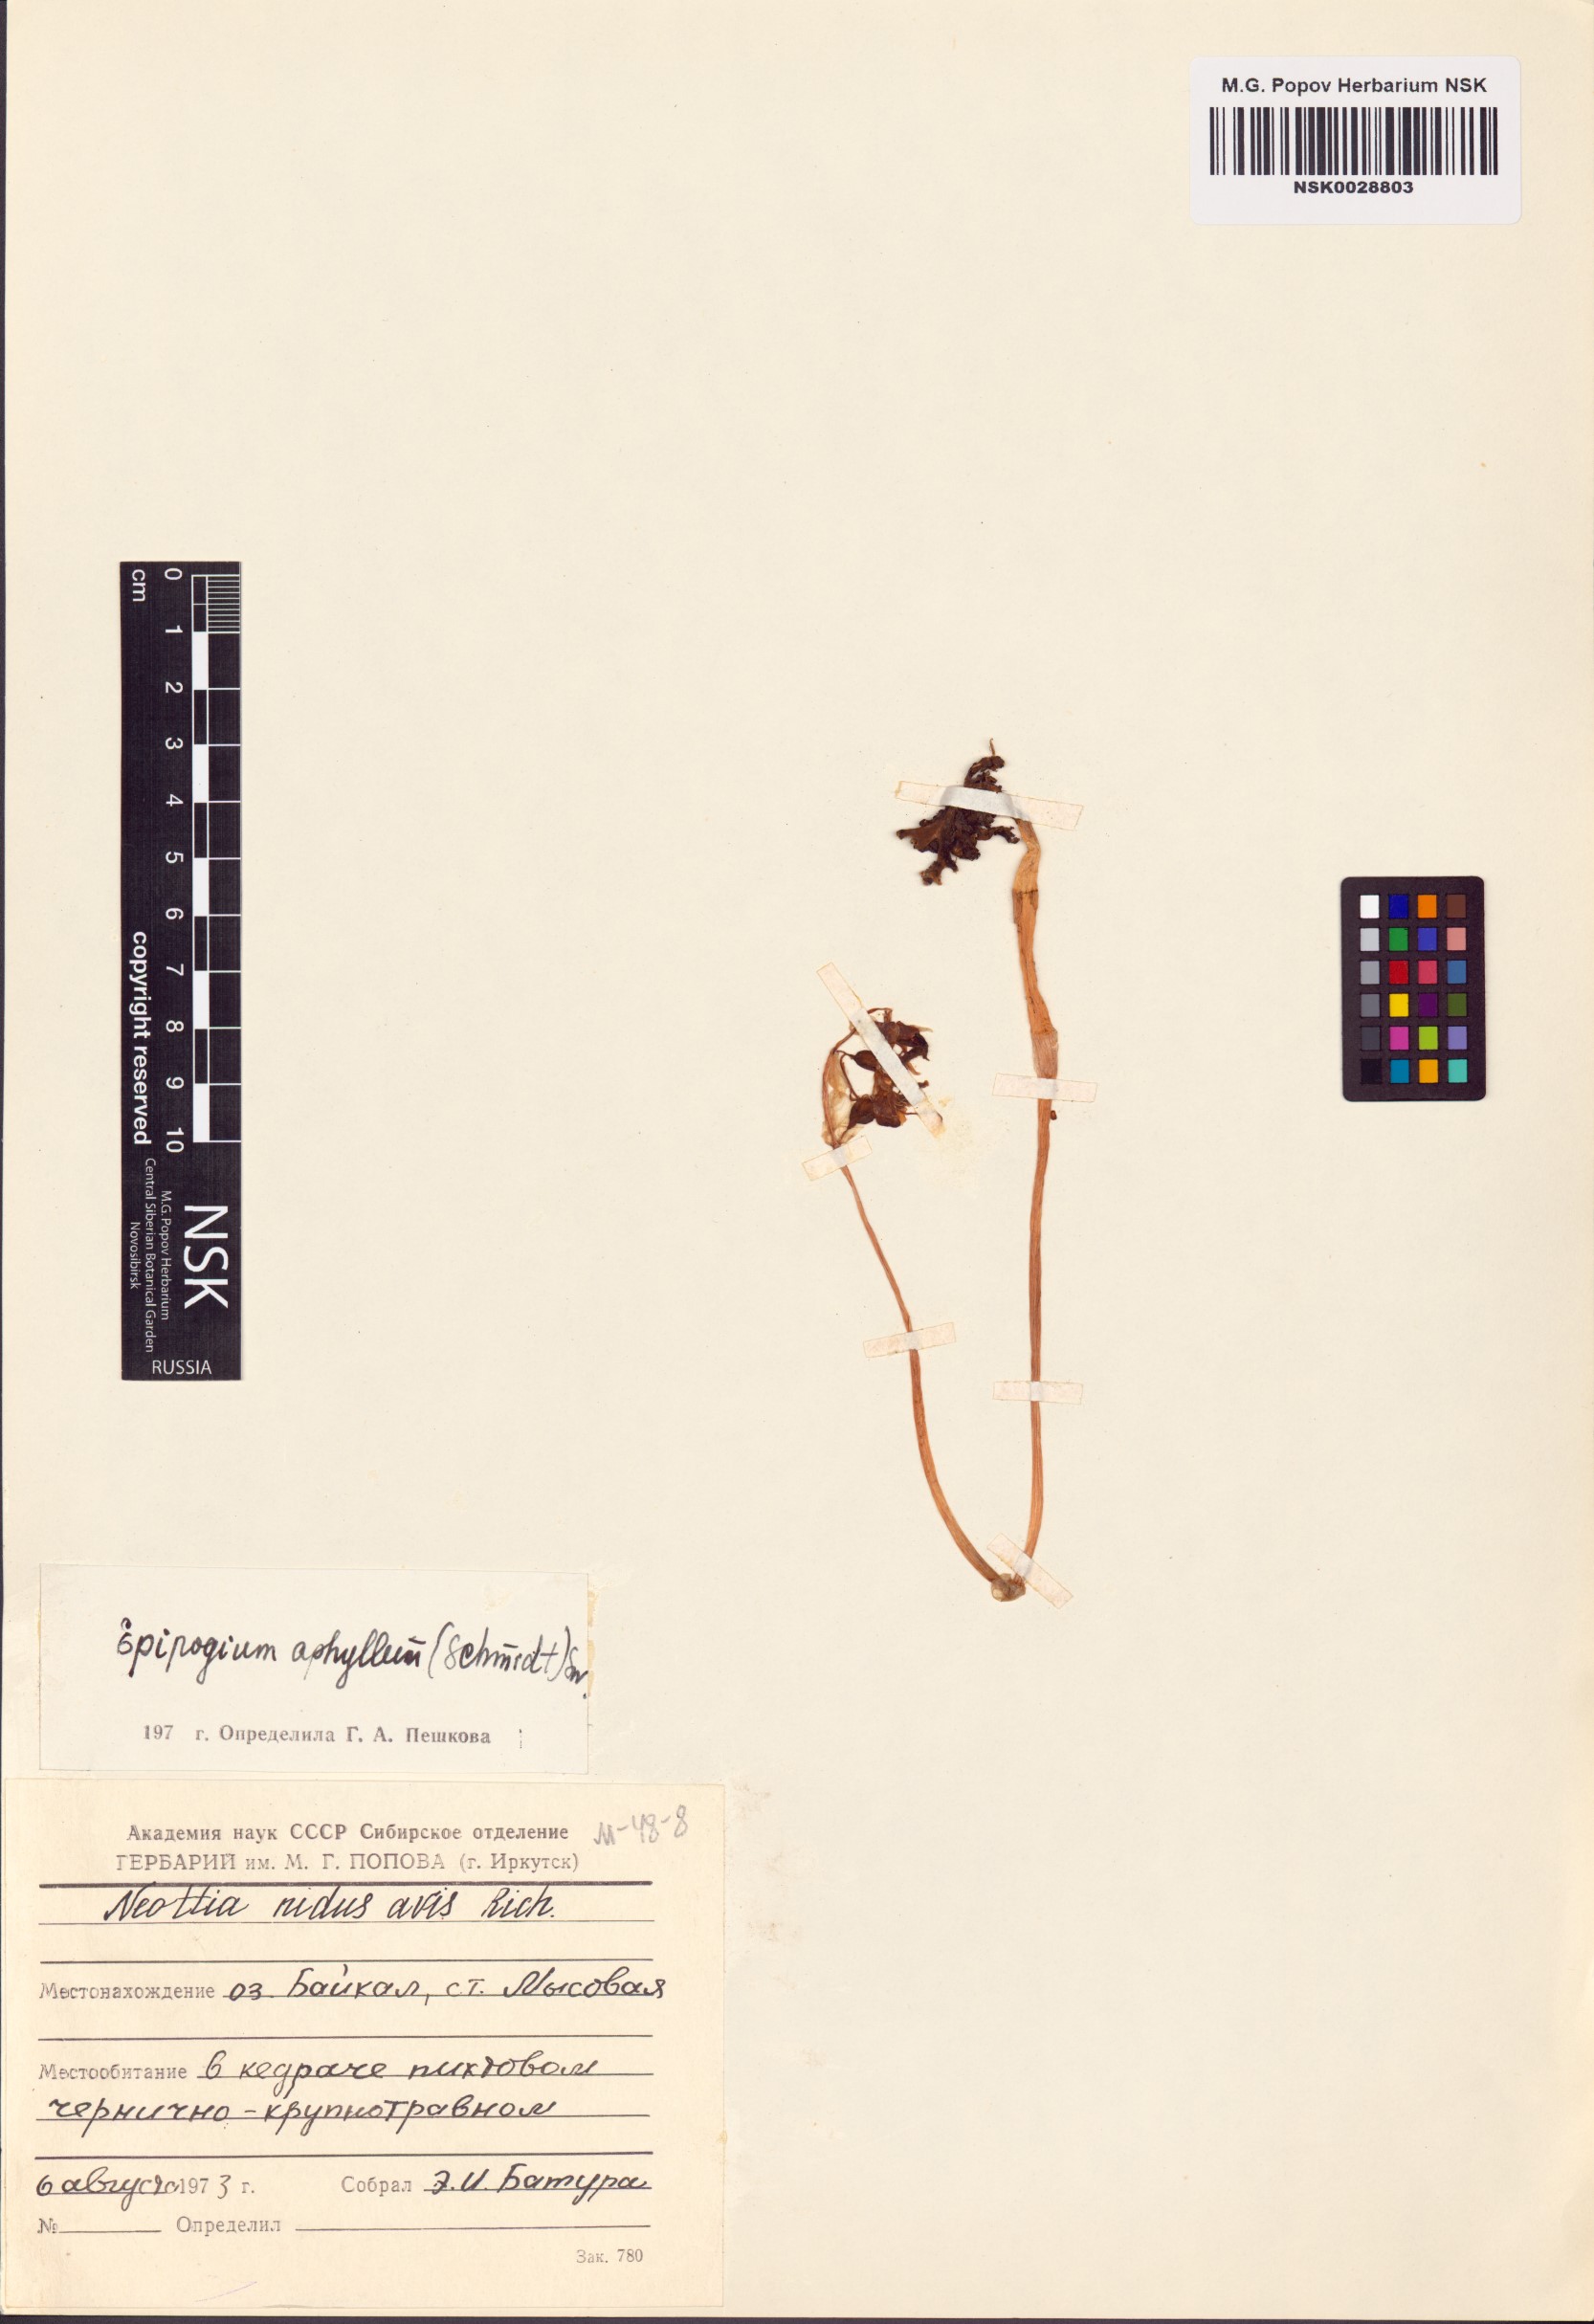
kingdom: Plantae
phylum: Tracheophyta
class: Liliopsida
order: Asparagales
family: Orchidaceae
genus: Epipogium
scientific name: Epipogium aphyllum
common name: Ghost orchid
